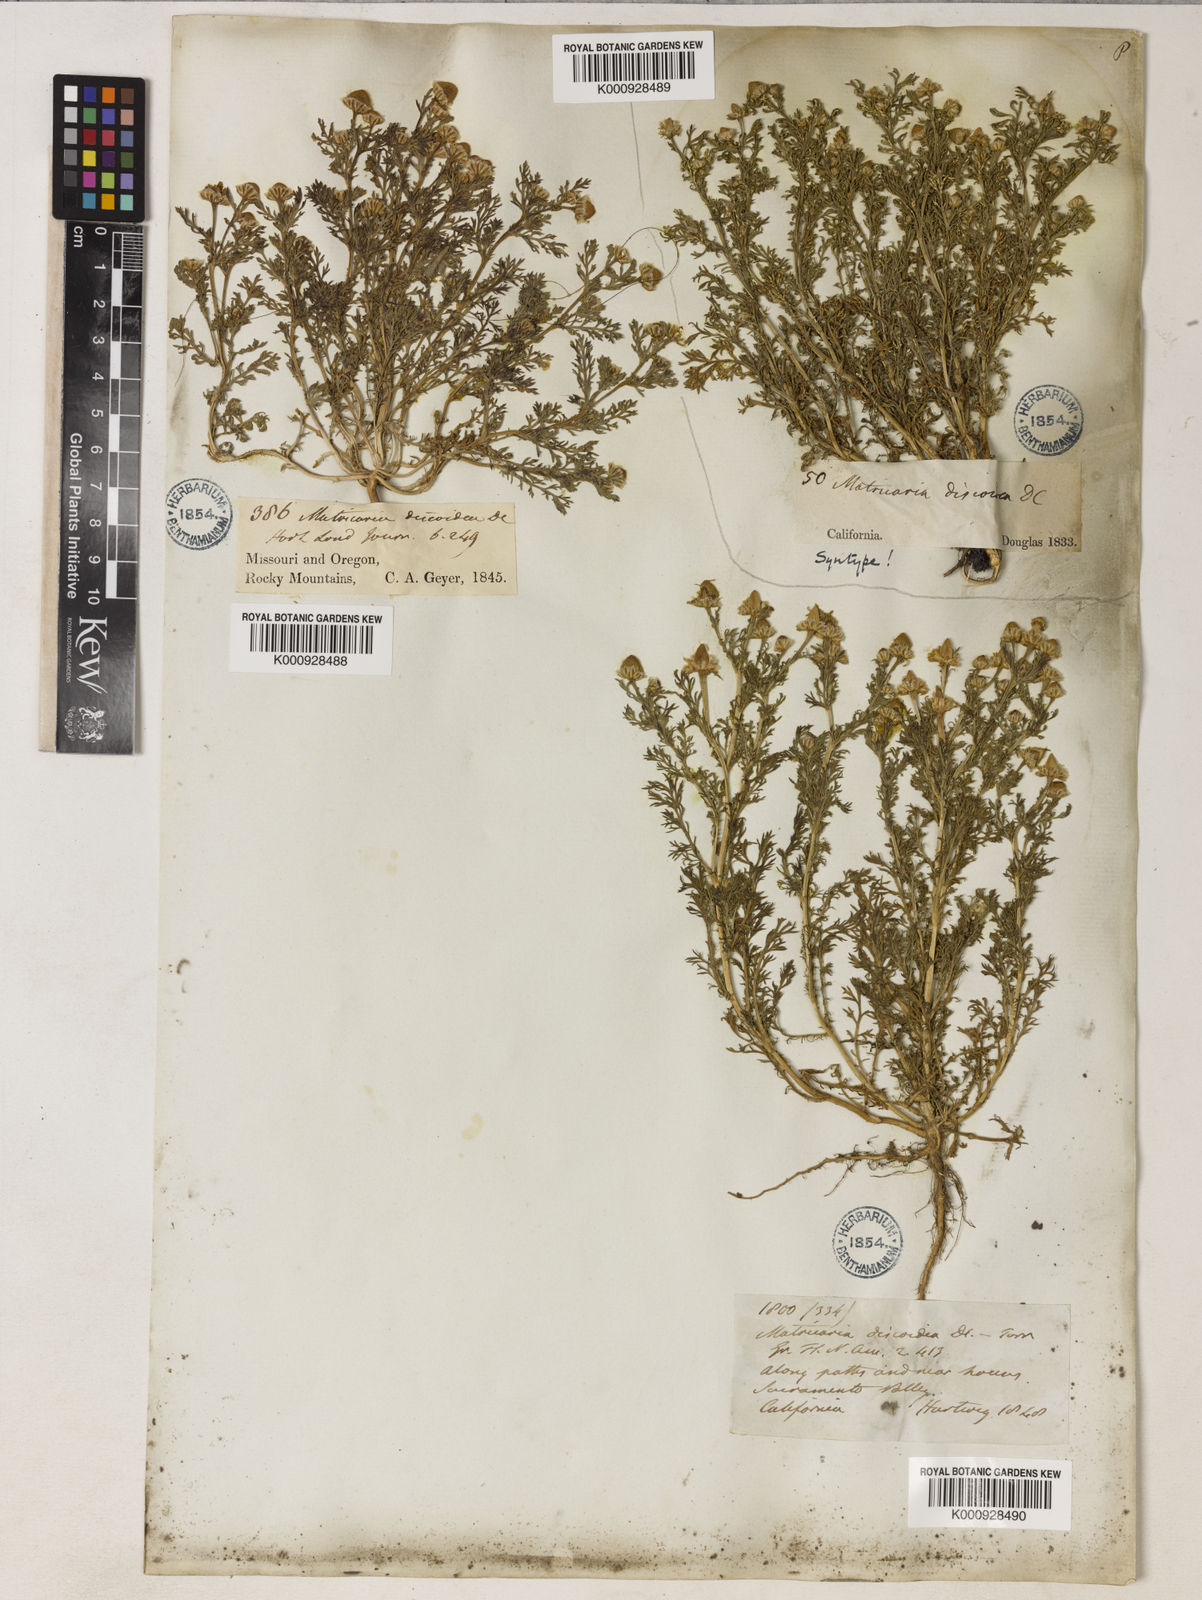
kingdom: Plantae
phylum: Tracheophyta
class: Magnoliopsida
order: Asterales
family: Asteraceae
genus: Matricaria
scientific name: Matricaria
